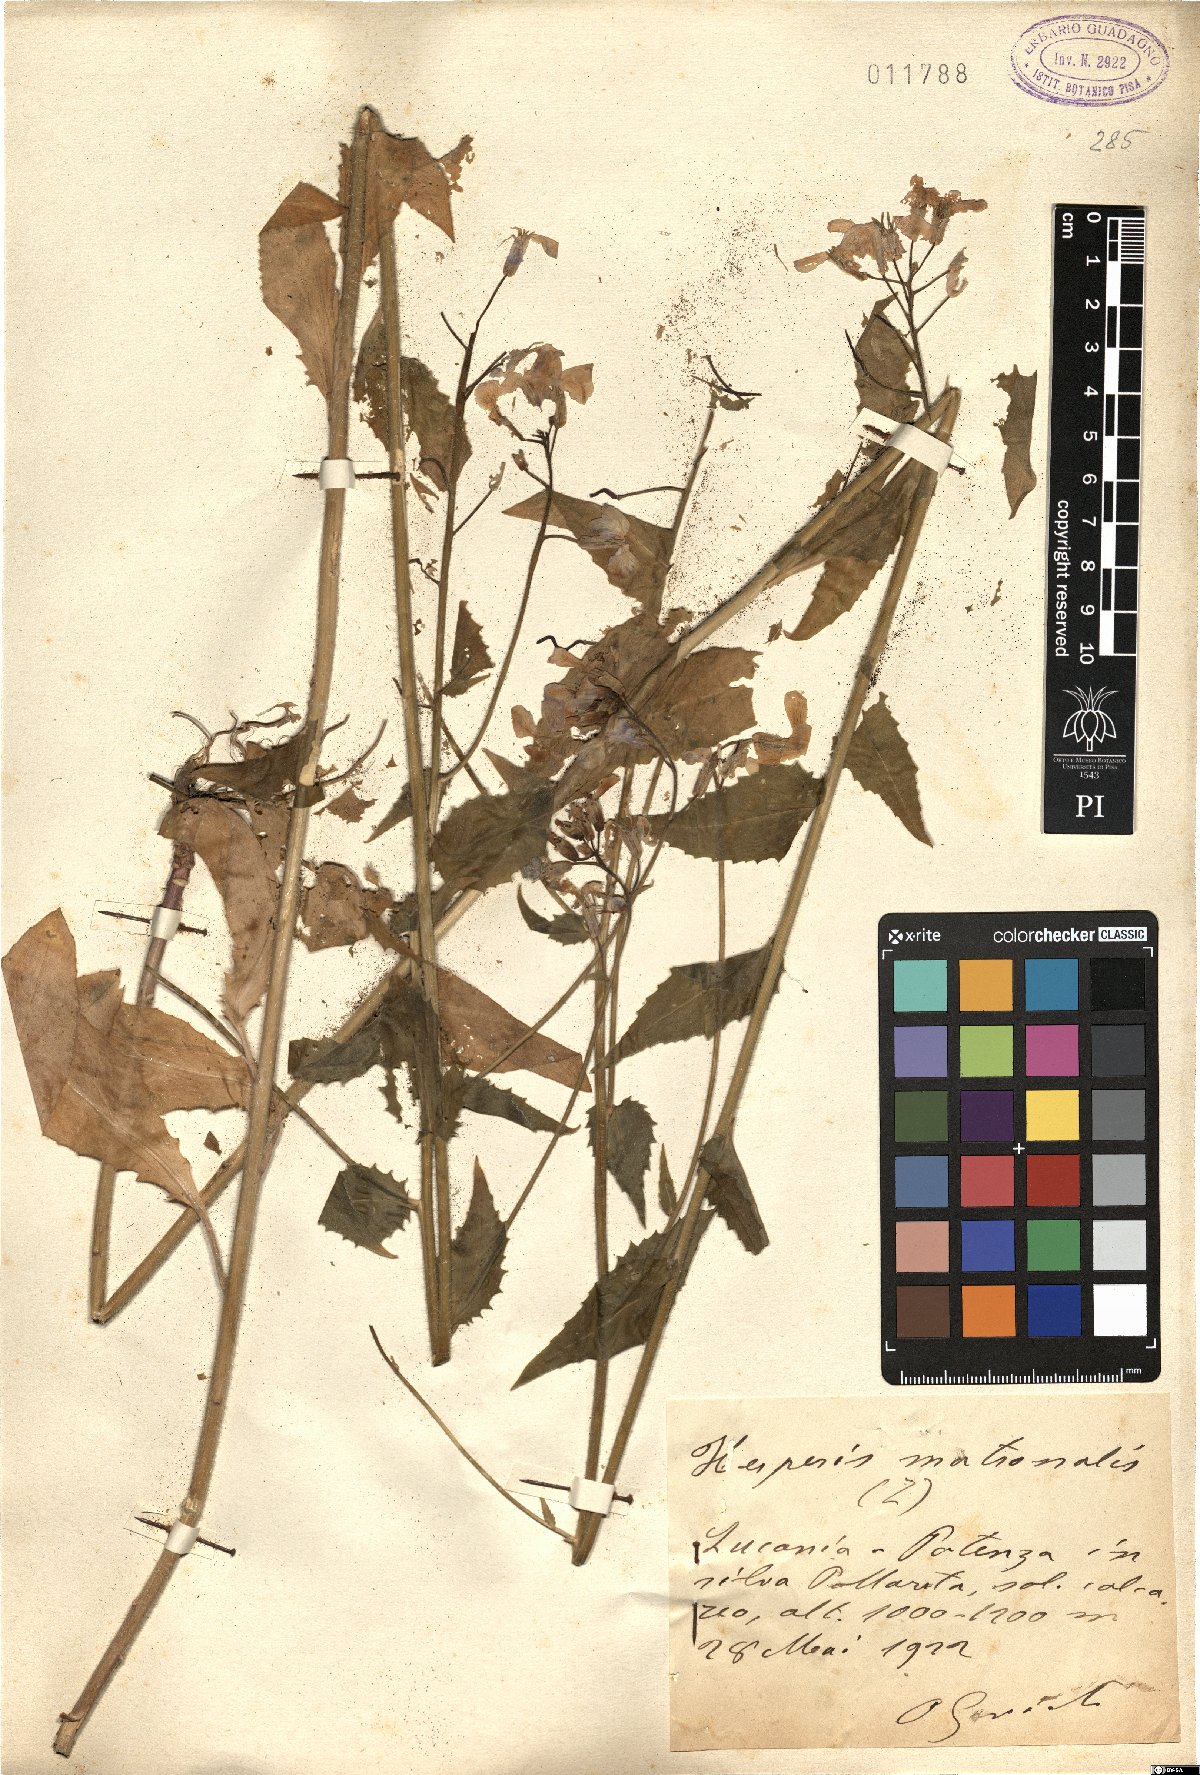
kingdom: Plantae
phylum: Tracheophyta
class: Magnoliopsida
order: Brassicales
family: Brassicaceae
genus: Hesperis
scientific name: Hesperis matronalis
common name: Dame's-violet
